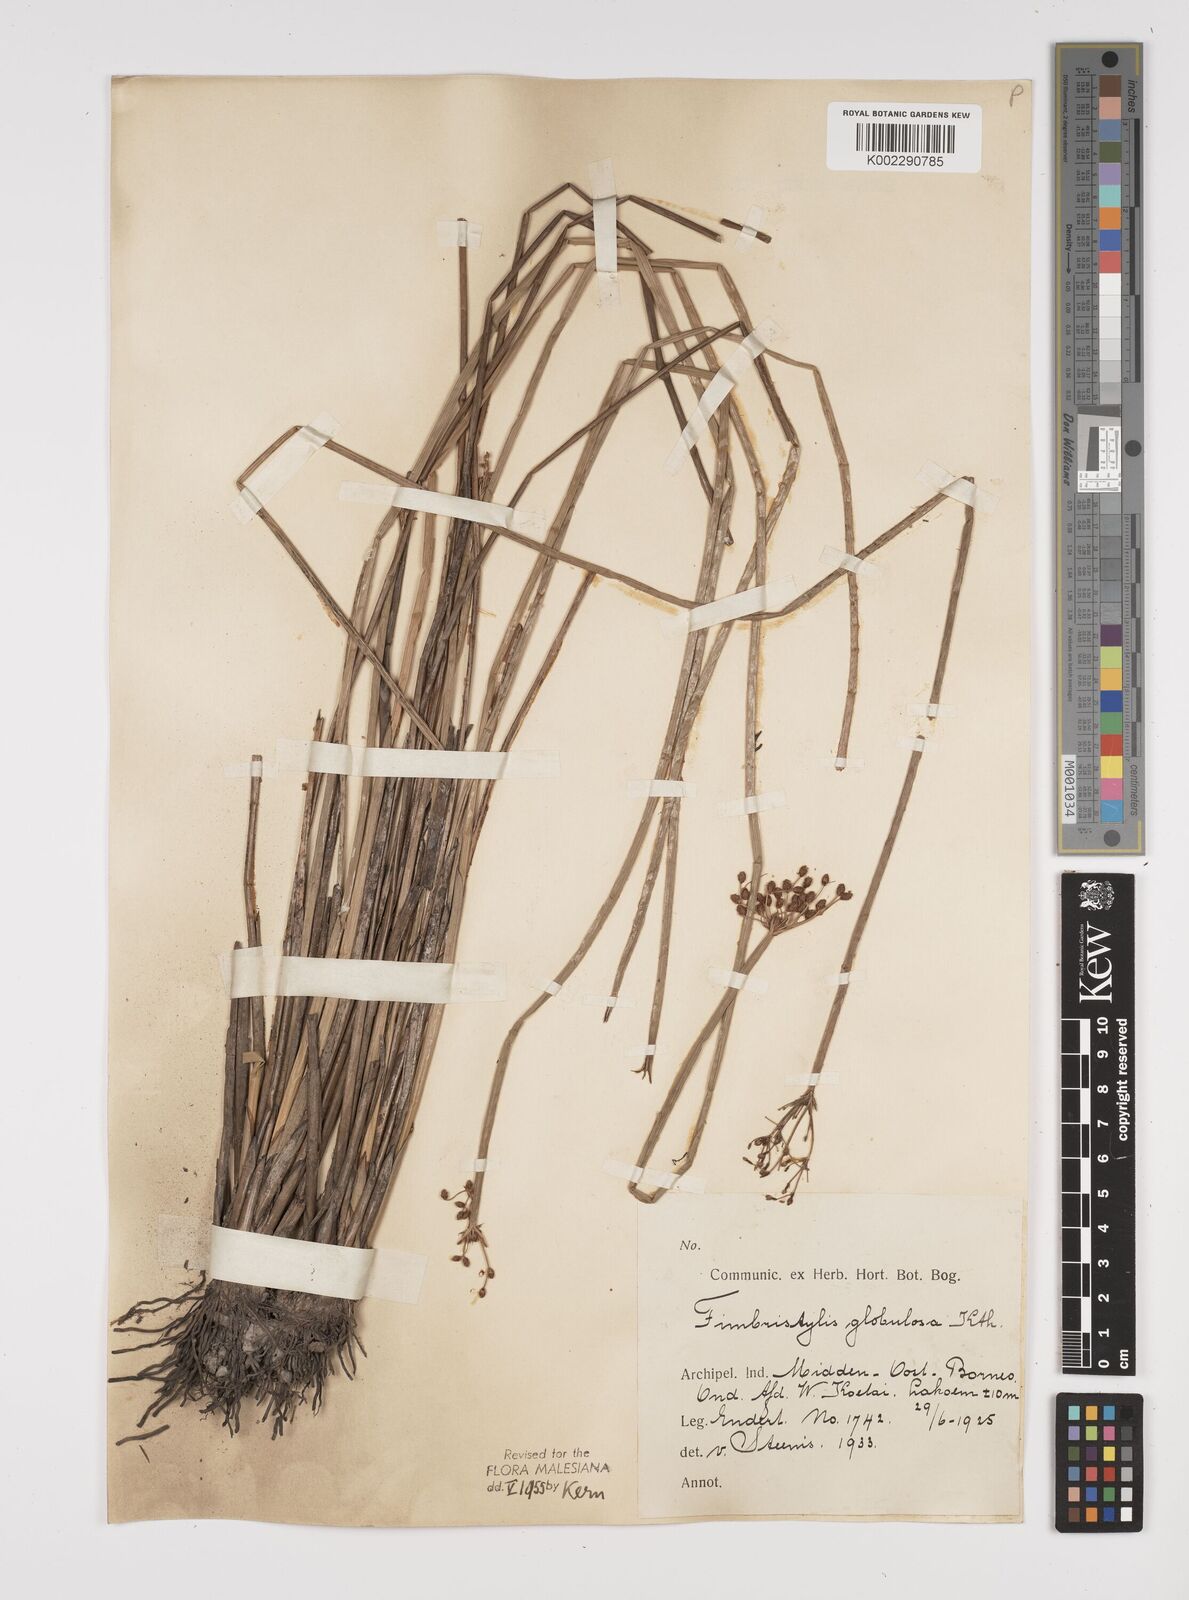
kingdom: Plantae
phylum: Tracheophyta
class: Liliopsida
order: Poales
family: Cyperaceae
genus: Fimbristylis
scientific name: Fimbristylis umbellaris
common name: Globular fimbristylis
